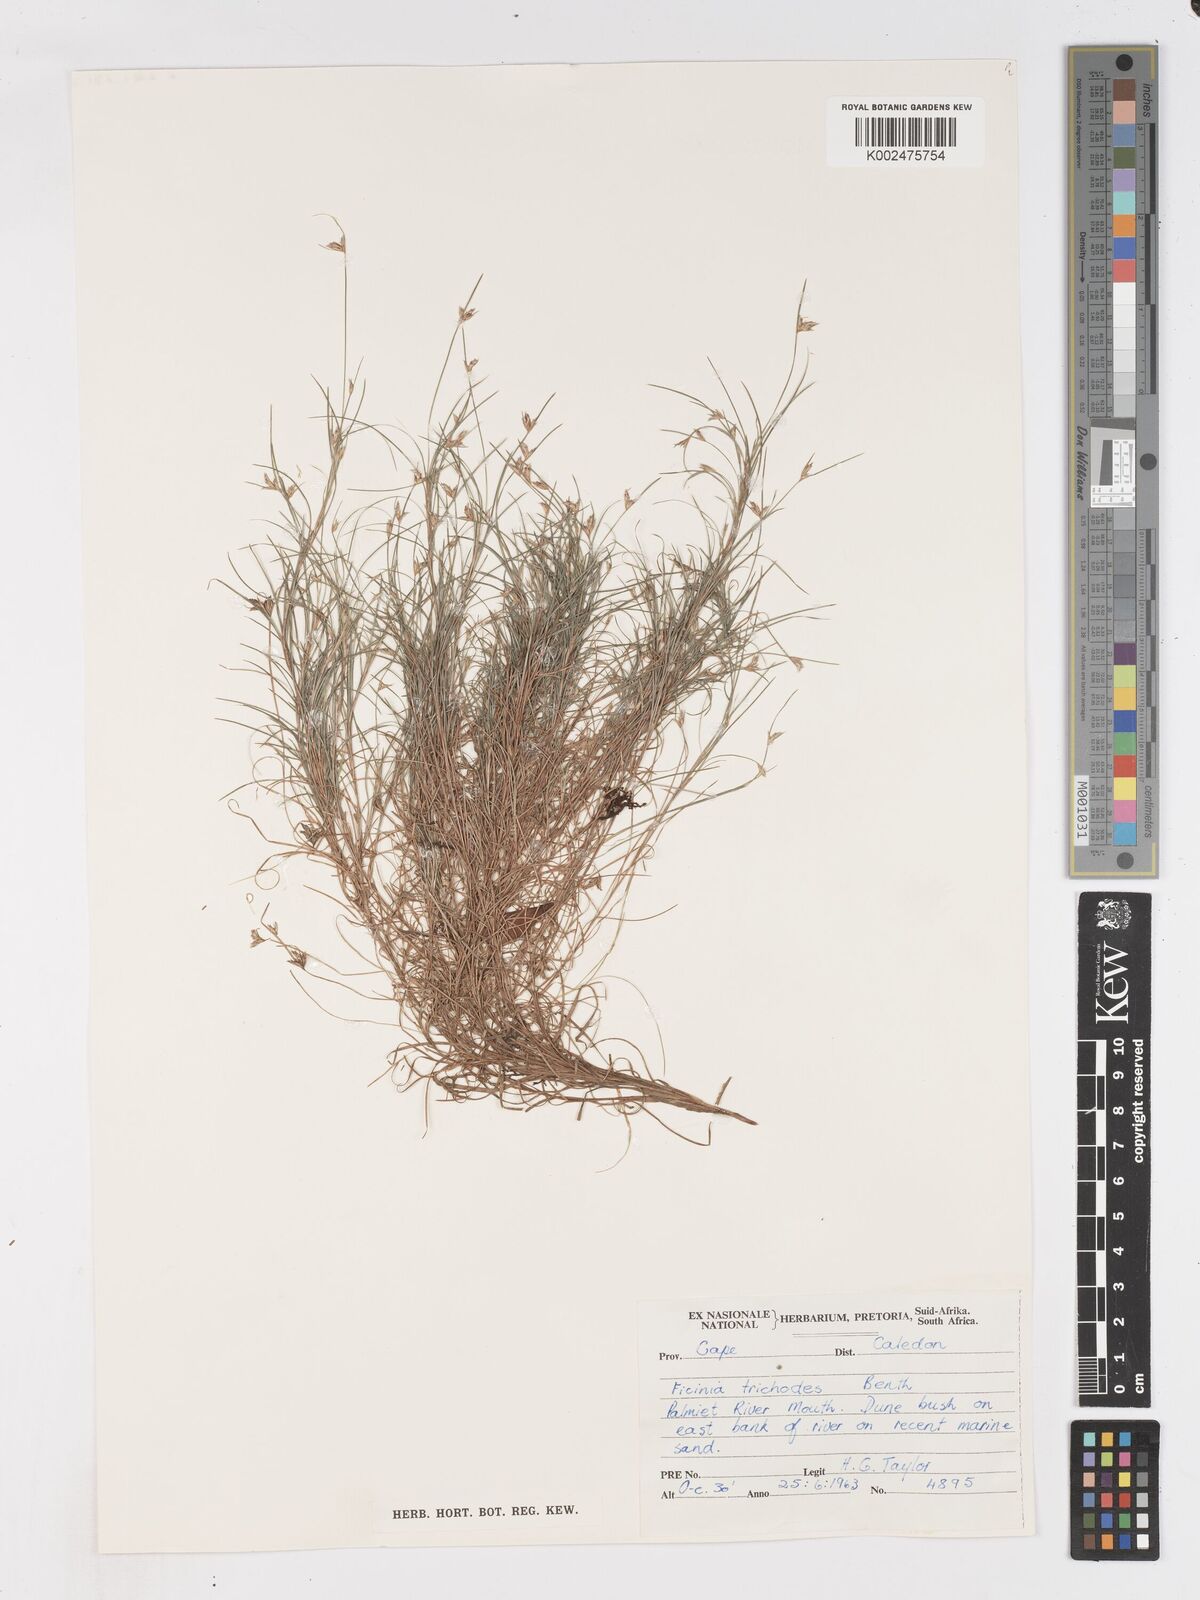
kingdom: Plantae
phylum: Tracheophyta
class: Liliopsida
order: Poales
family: Cyperaceae
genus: Ficinia
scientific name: Ficinia ramosissima
